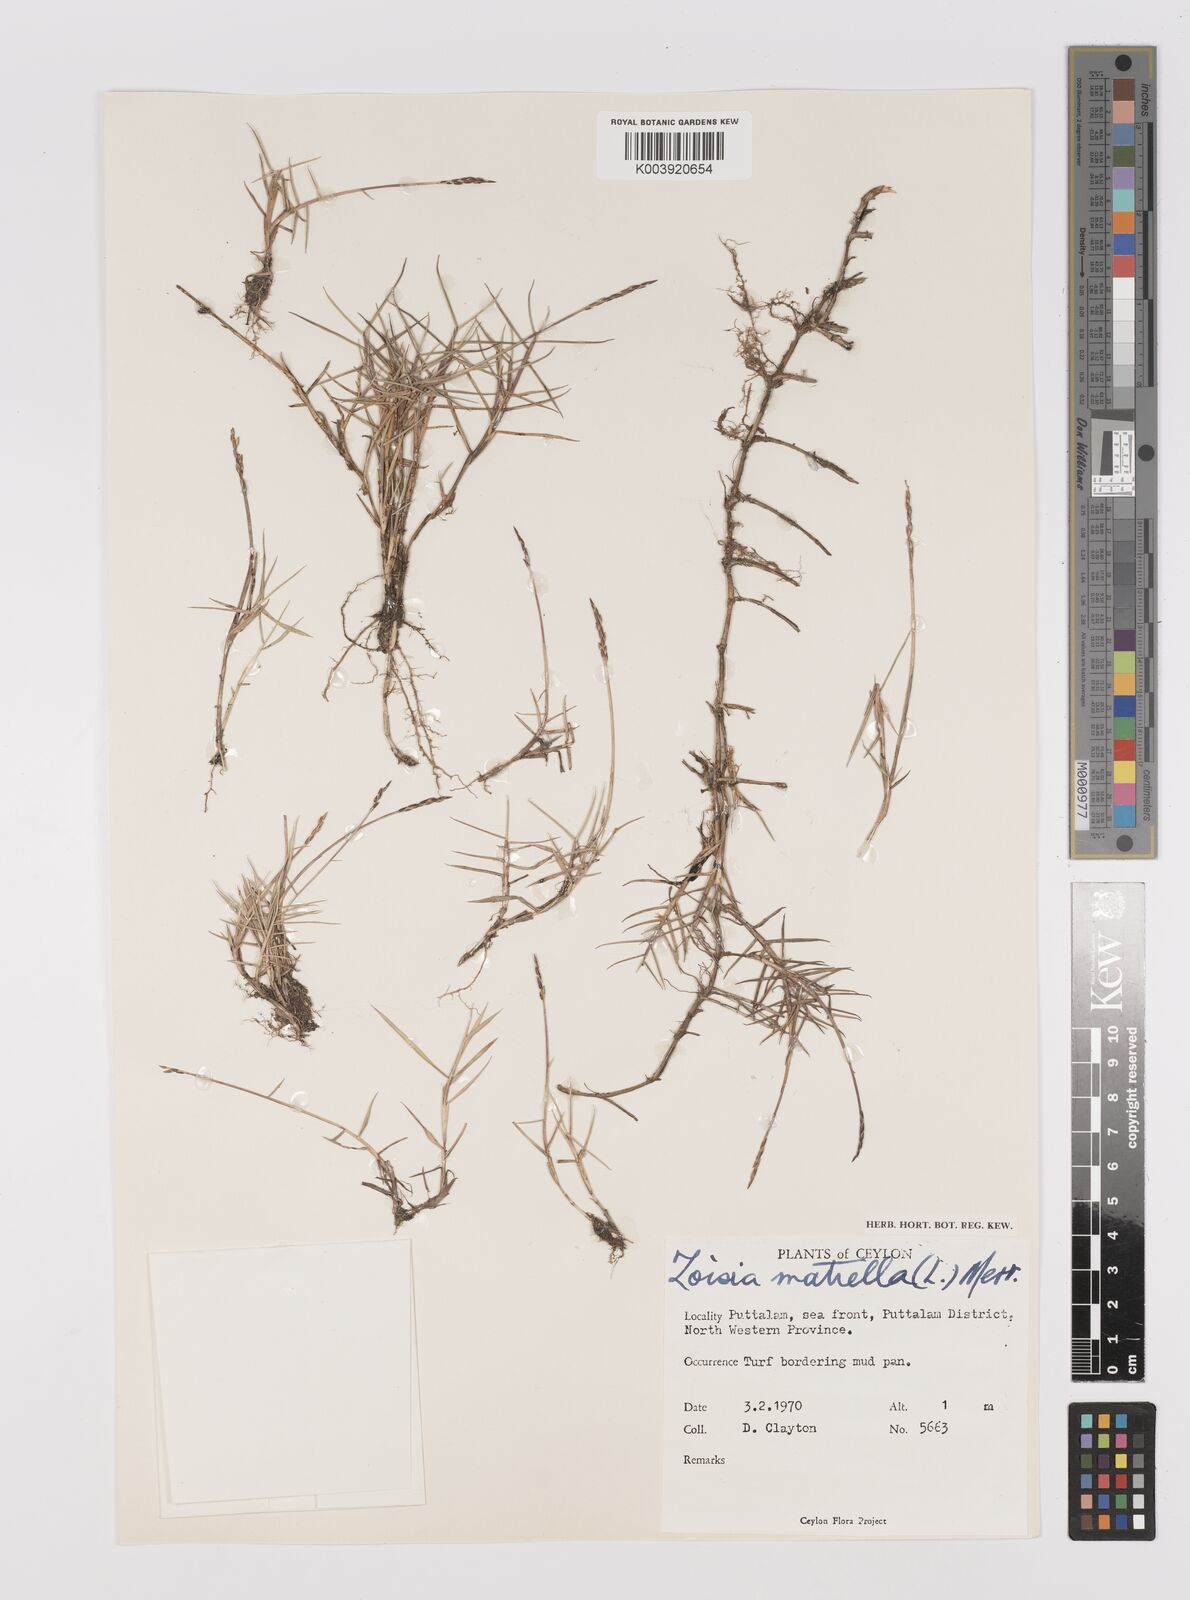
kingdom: Plantae
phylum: Tracheophyta
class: Liliopsida
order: Poales
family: Poaceae
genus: Zoysia
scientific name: Zoysia matrella
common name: Manila grass
